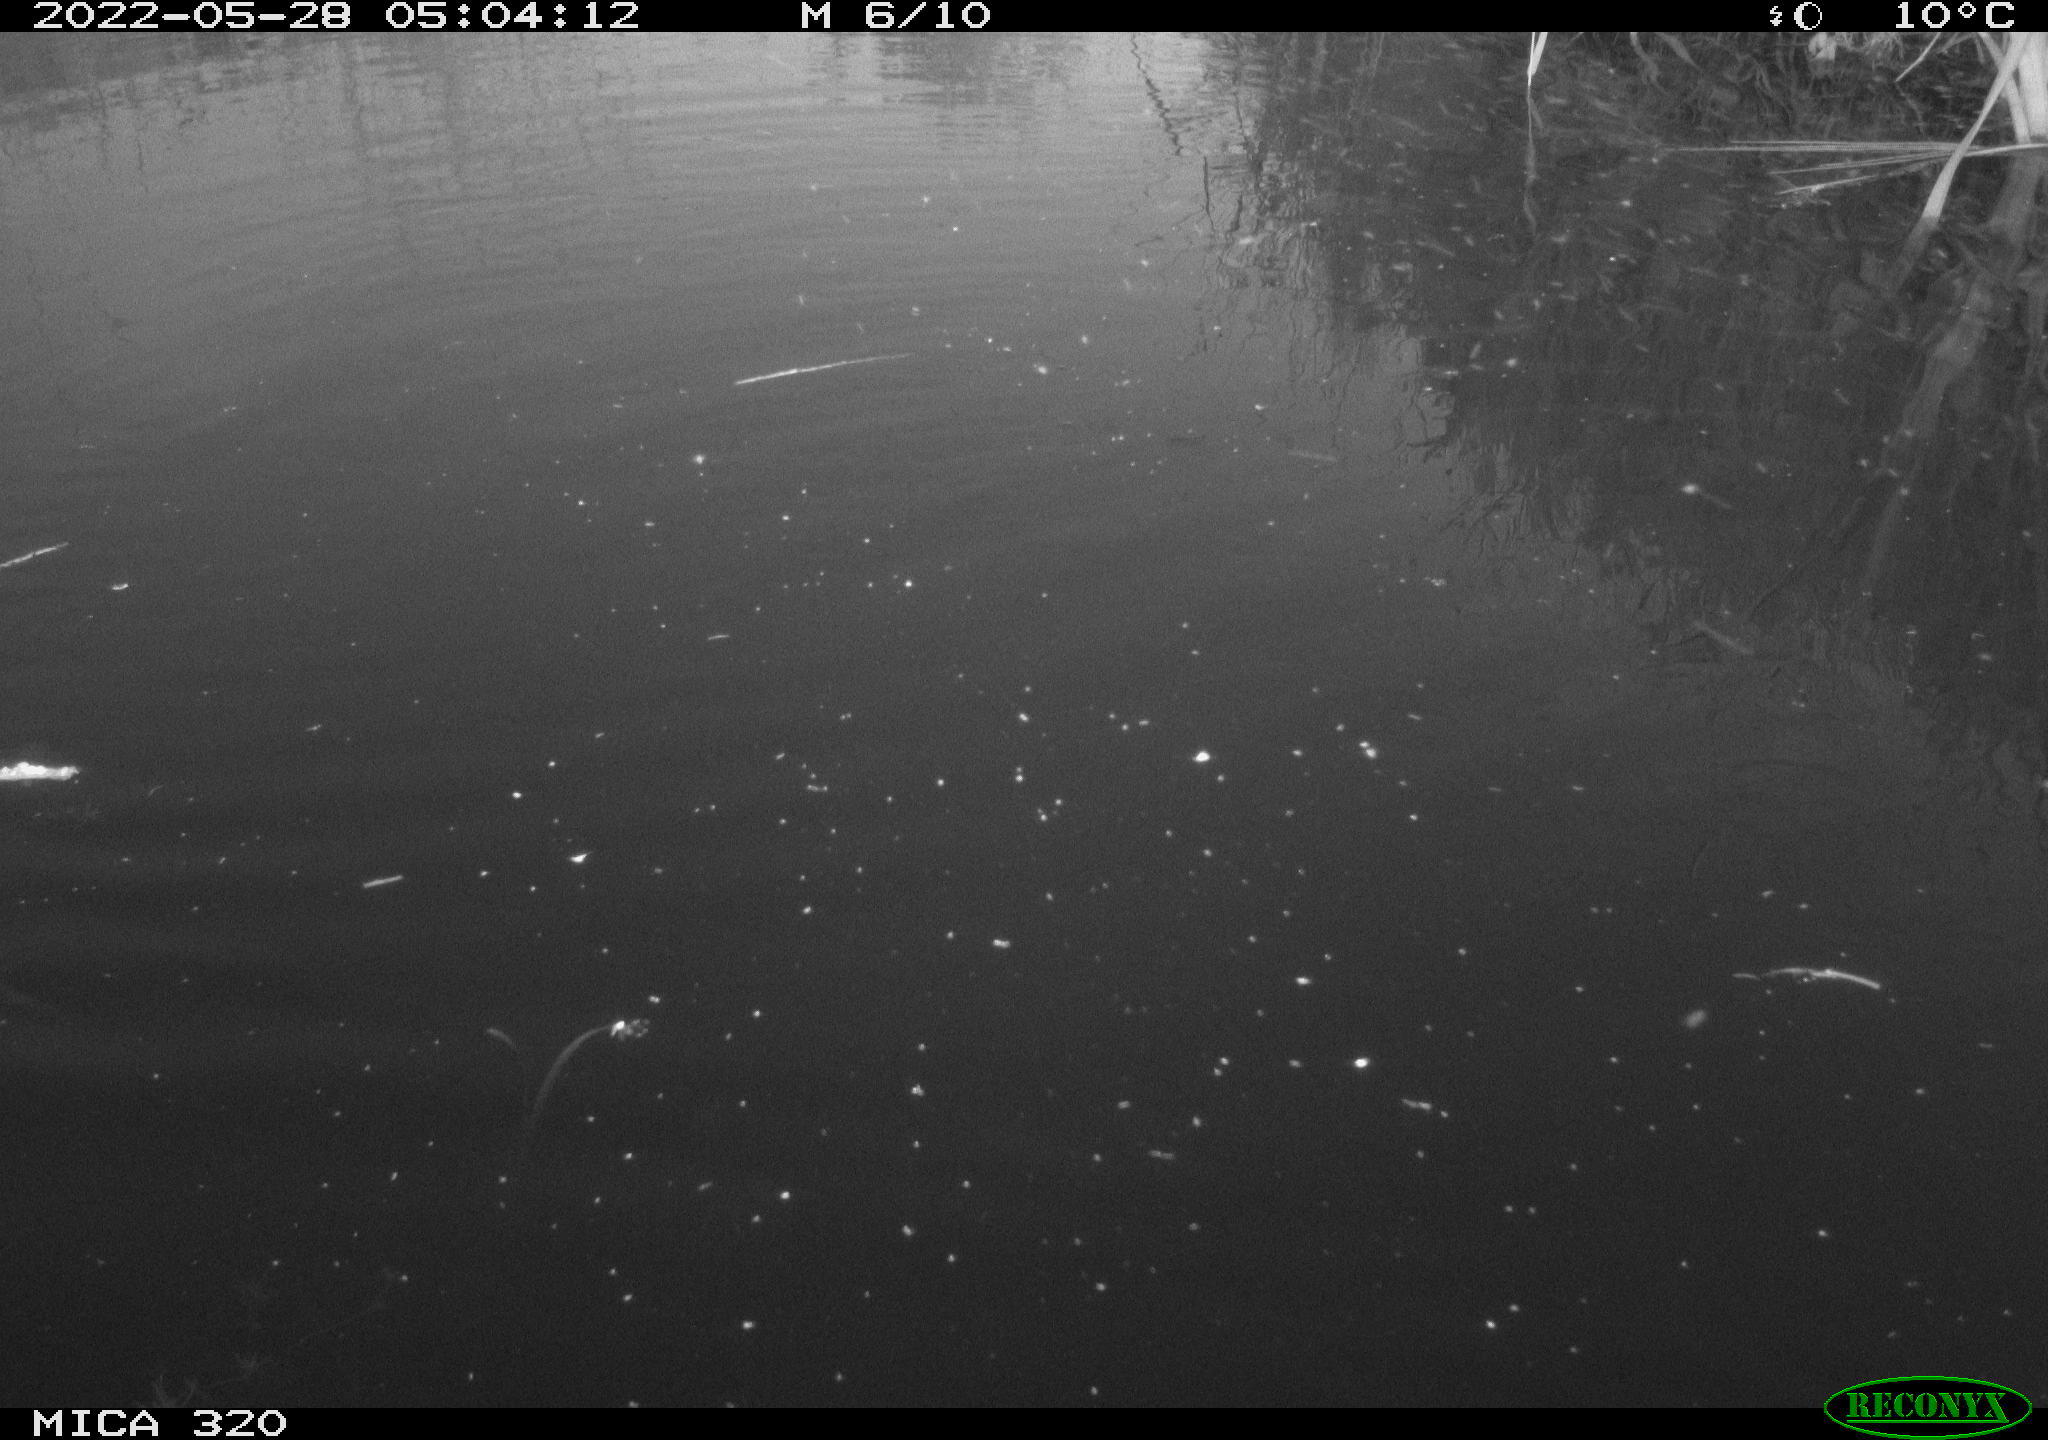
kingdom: Animalia
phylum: Chordata
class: Aves
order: Anseriformes
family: Anatidae
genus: Mareca
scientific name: Mareca strepera
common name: Gadwall
